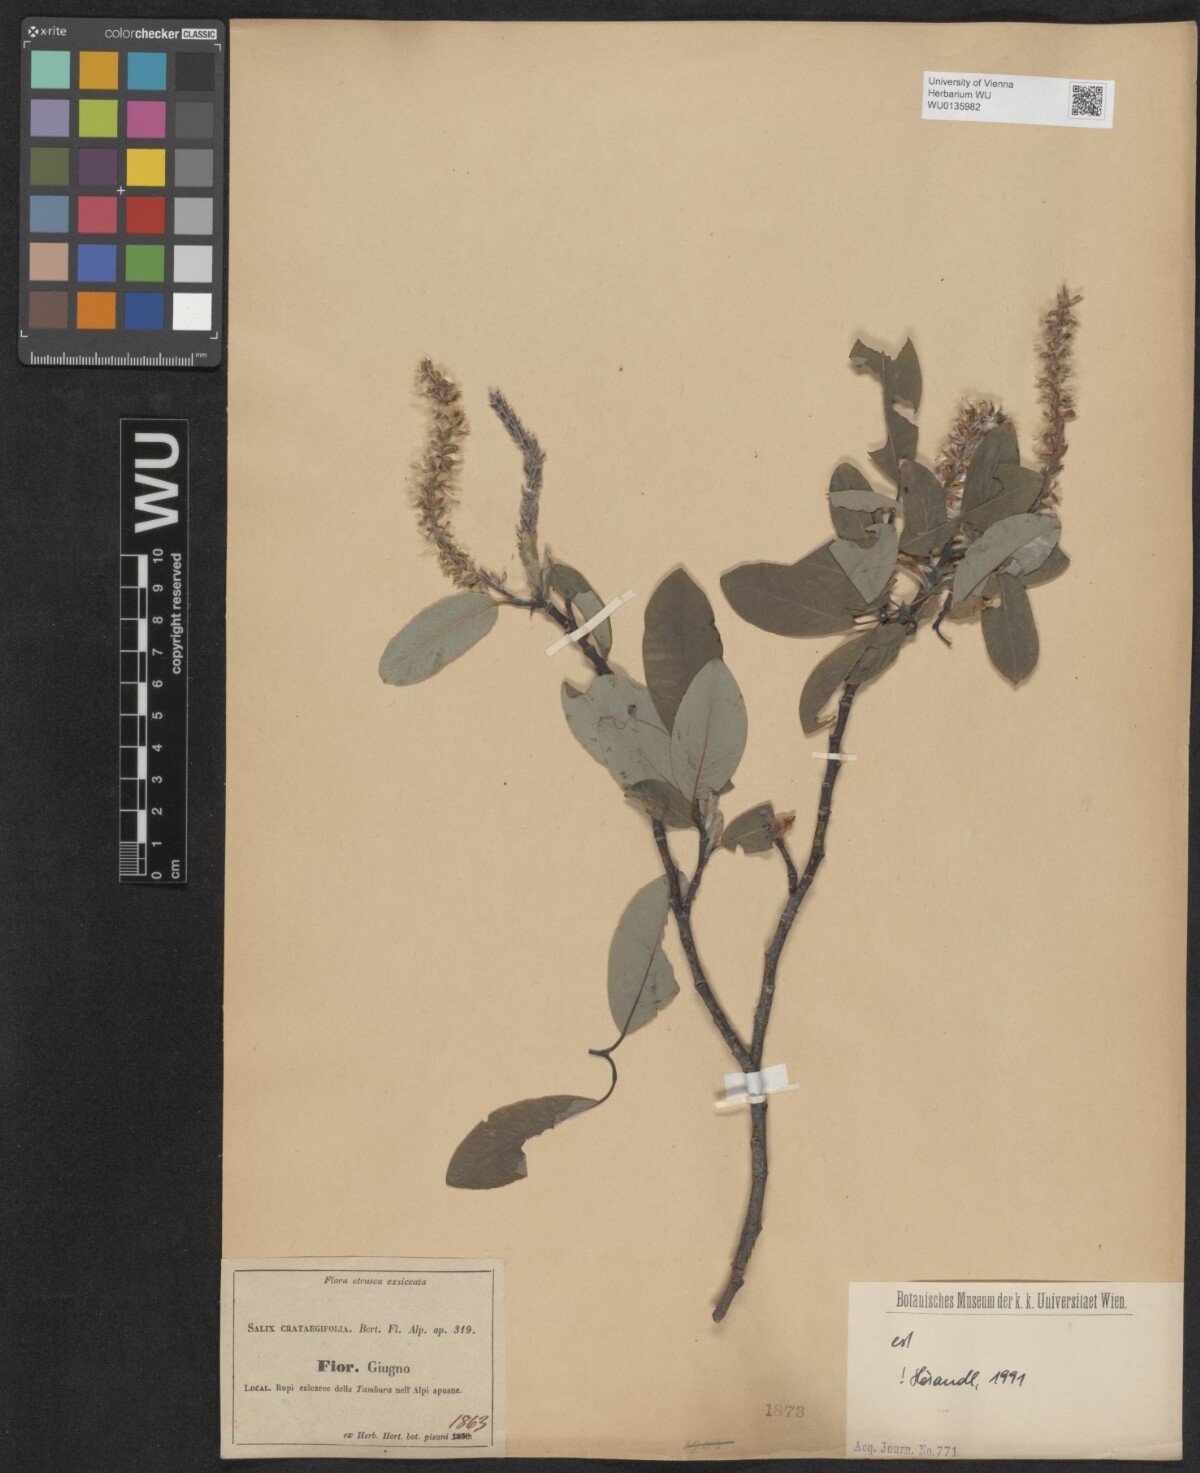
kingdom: Plantae
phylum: Tracheophyta
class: Magnoliopsida
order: Malpighiales
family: Salicaceae
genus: Salix
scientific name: Salix crataegifolia
